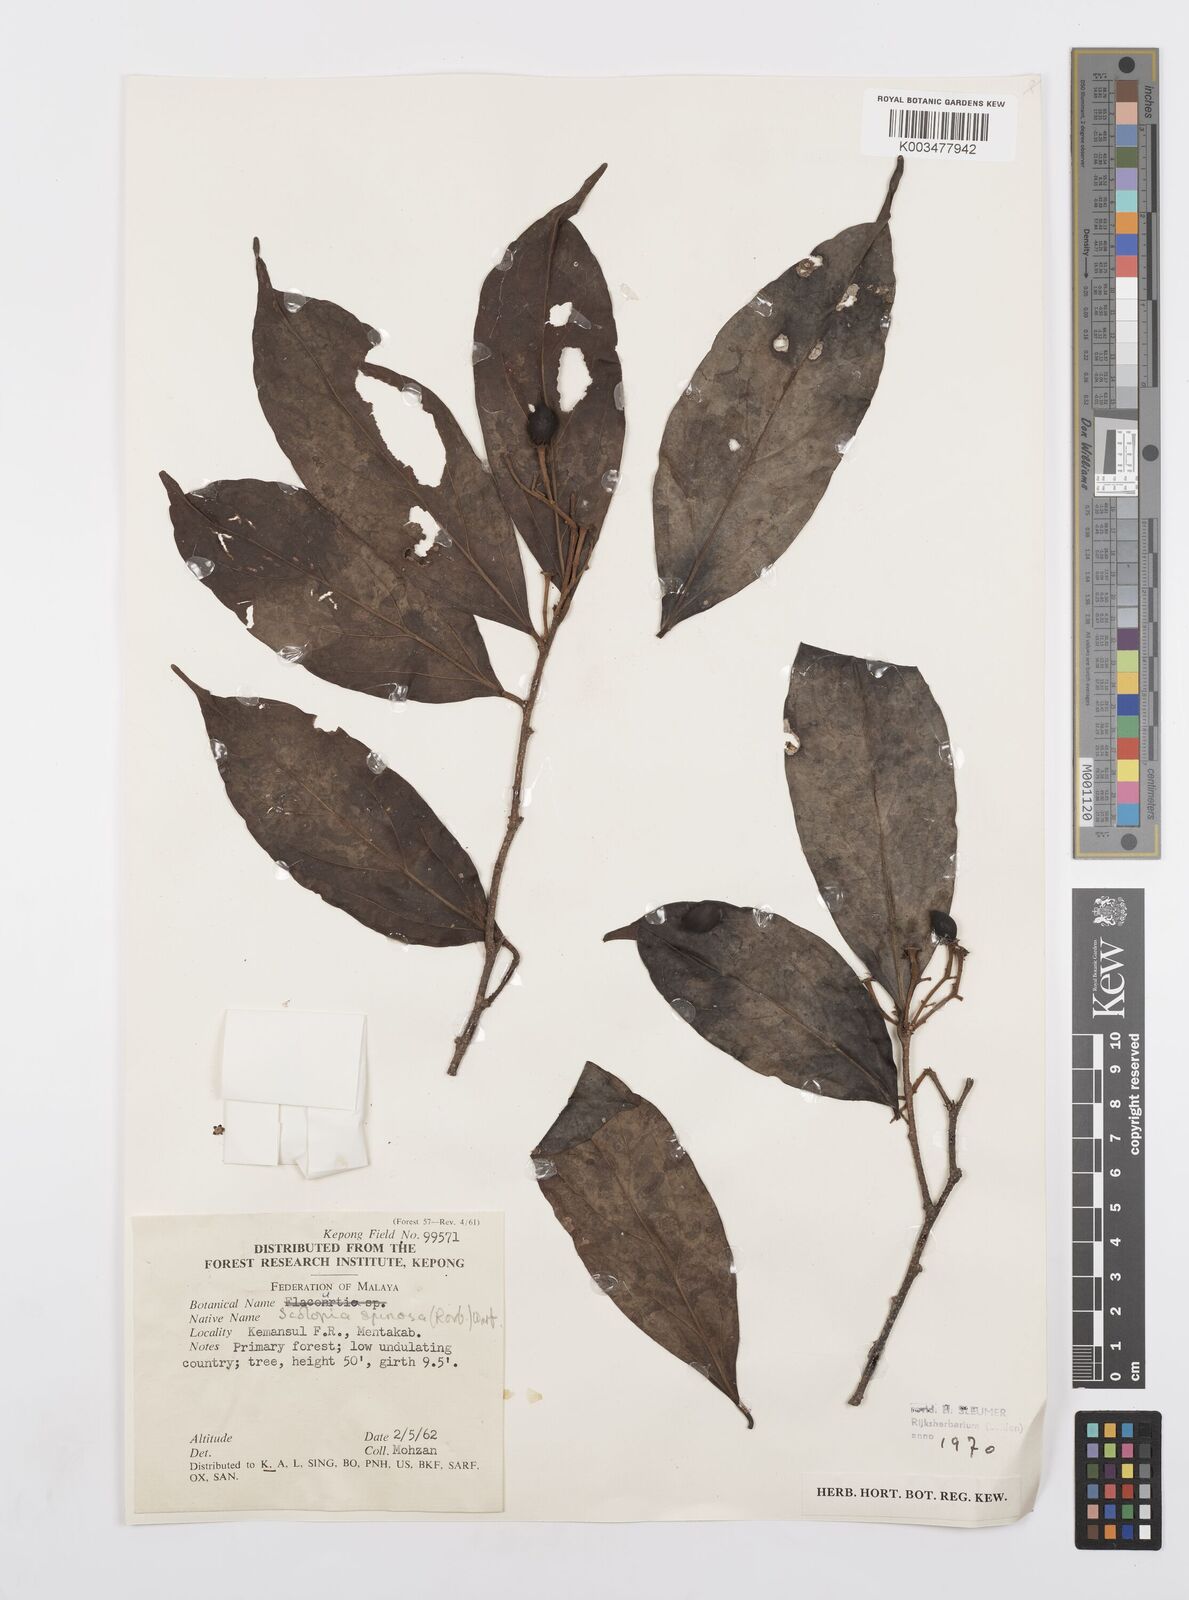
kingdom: Plantae
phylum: Tracheophyta
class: Magnoliopsida
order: Malpighiales
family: Salicaceae
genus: Scolopia
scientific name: Scolopia spinosa
